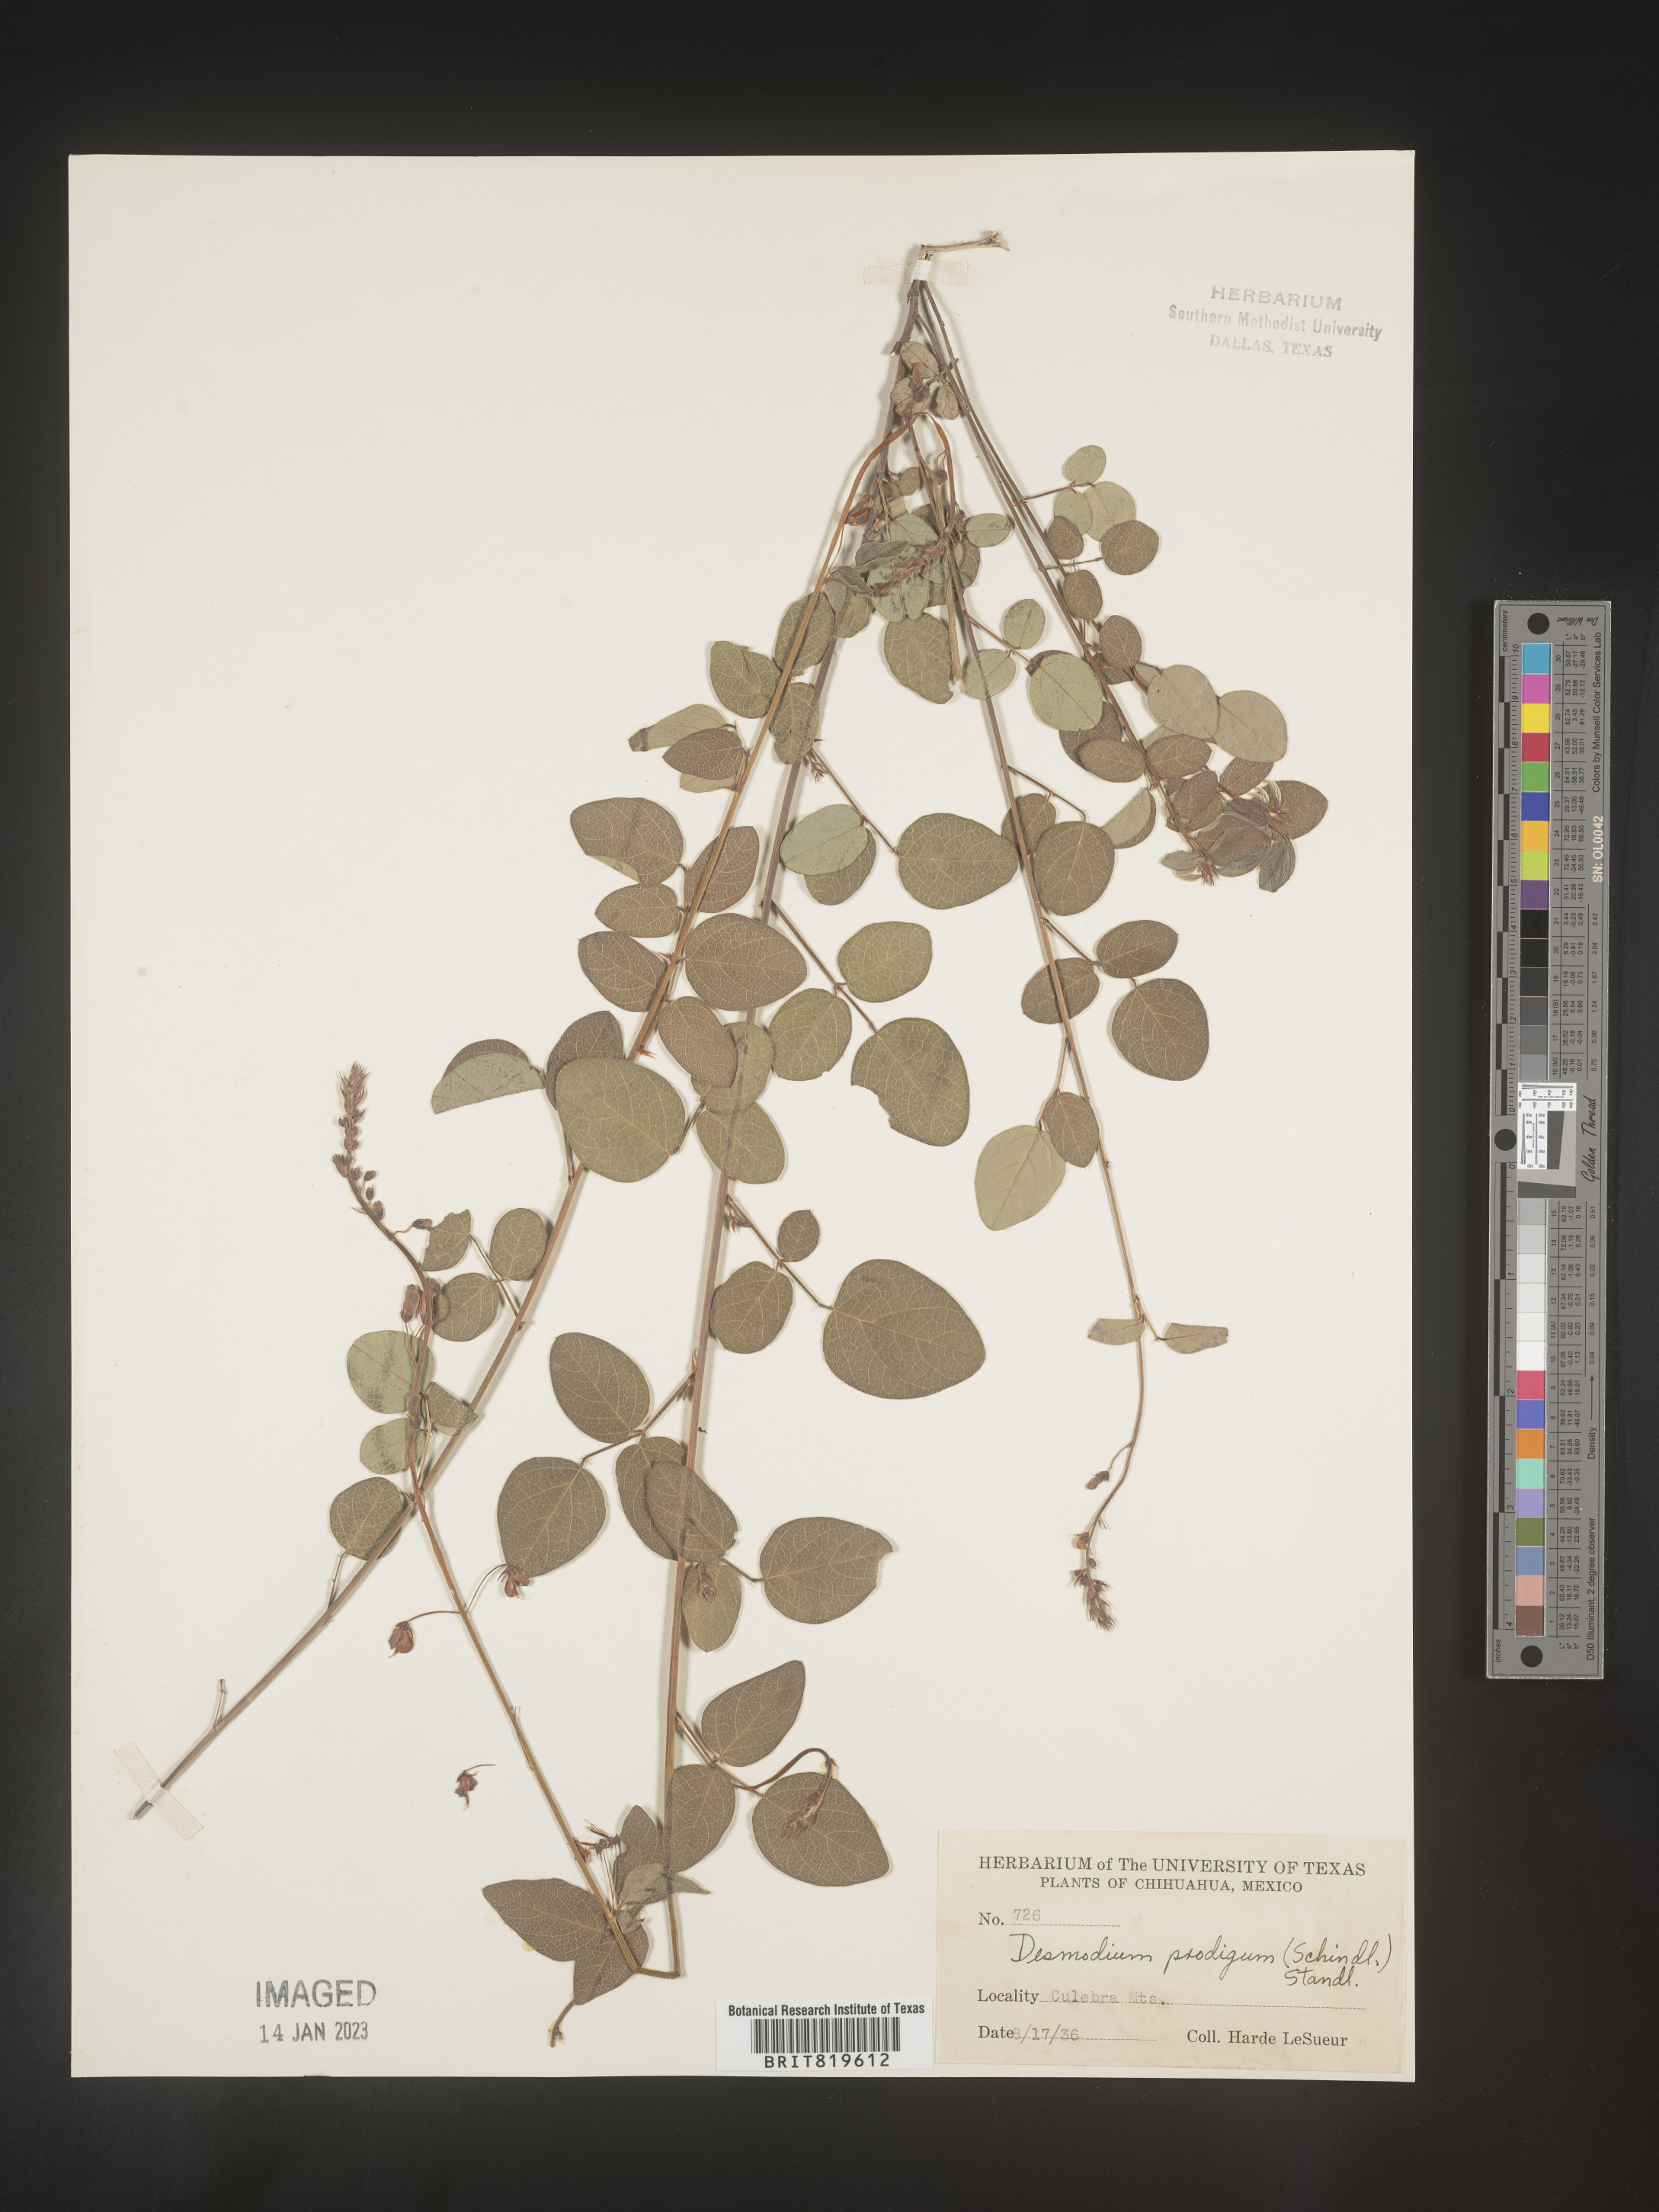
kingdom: Plantae
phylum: Tracheophyta
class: Magnoliopsida
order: Fabales
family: Fabaceae
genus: Desmodium
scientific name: Desmodium
